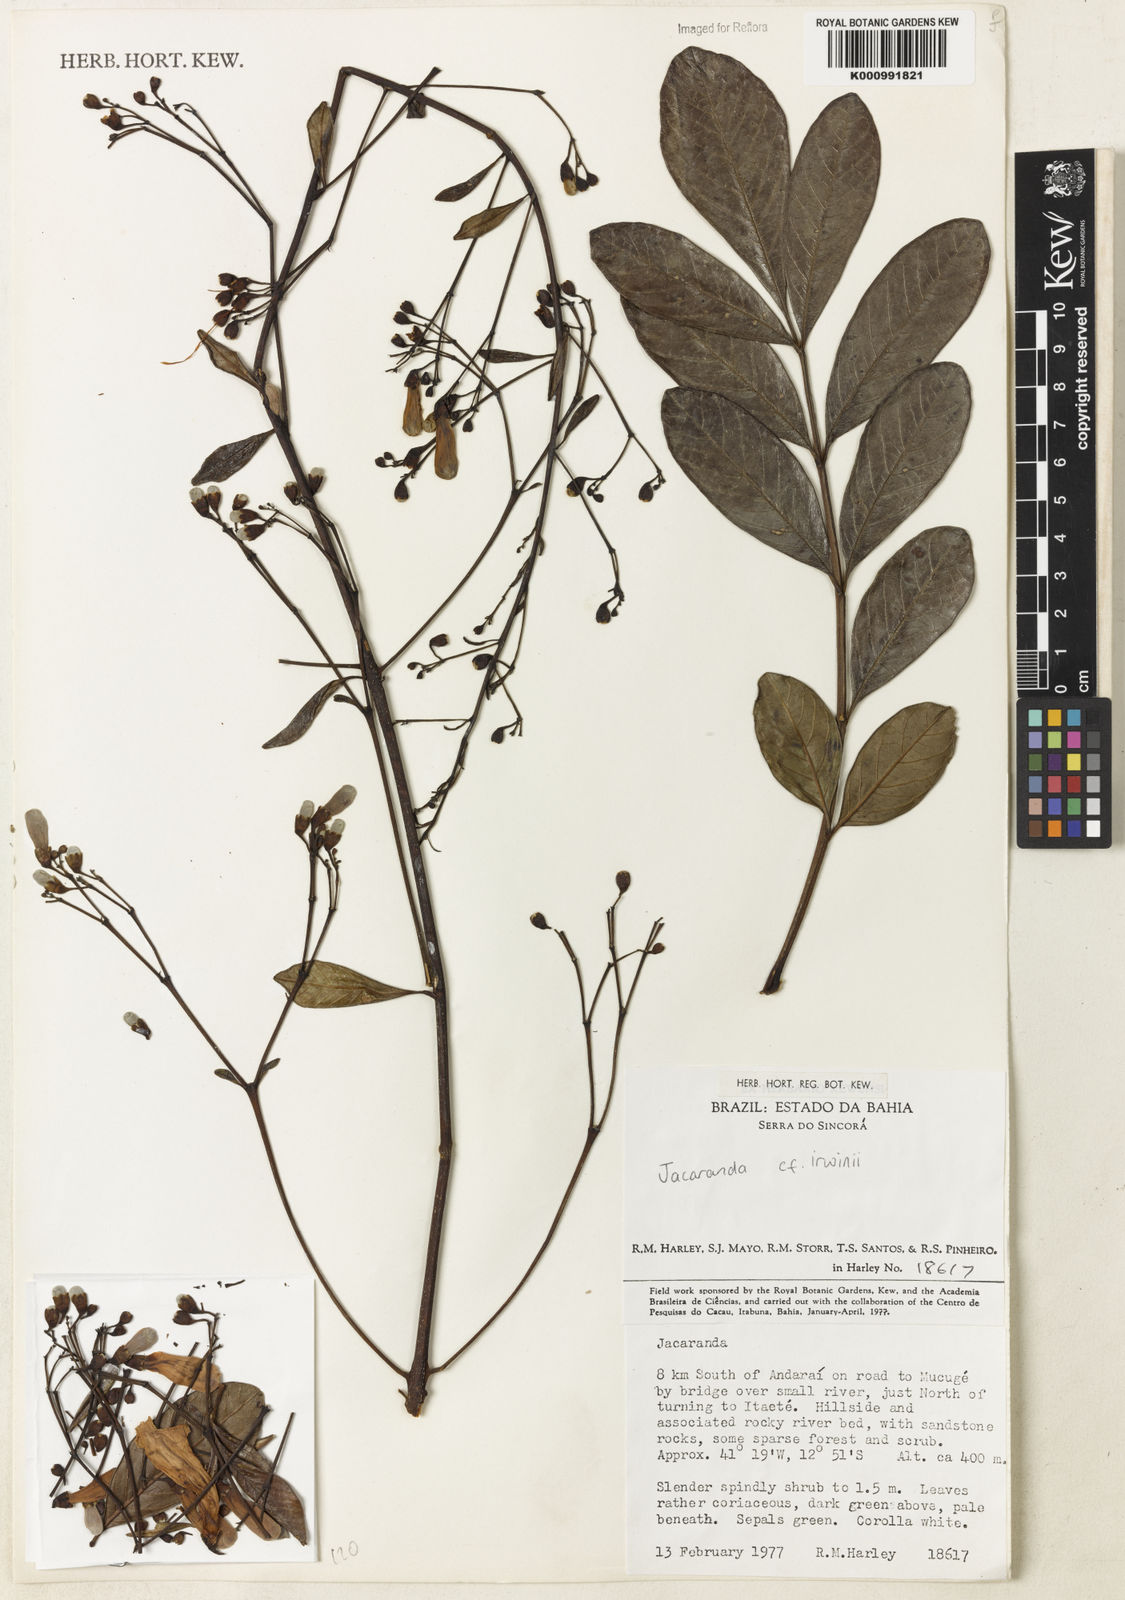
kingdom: Plantae
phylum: Tracheophyta
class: Magnoliopsida
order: Lamiales
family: Bignoniaceae
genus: Jacaranda
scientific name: Jacaranda irwinii
